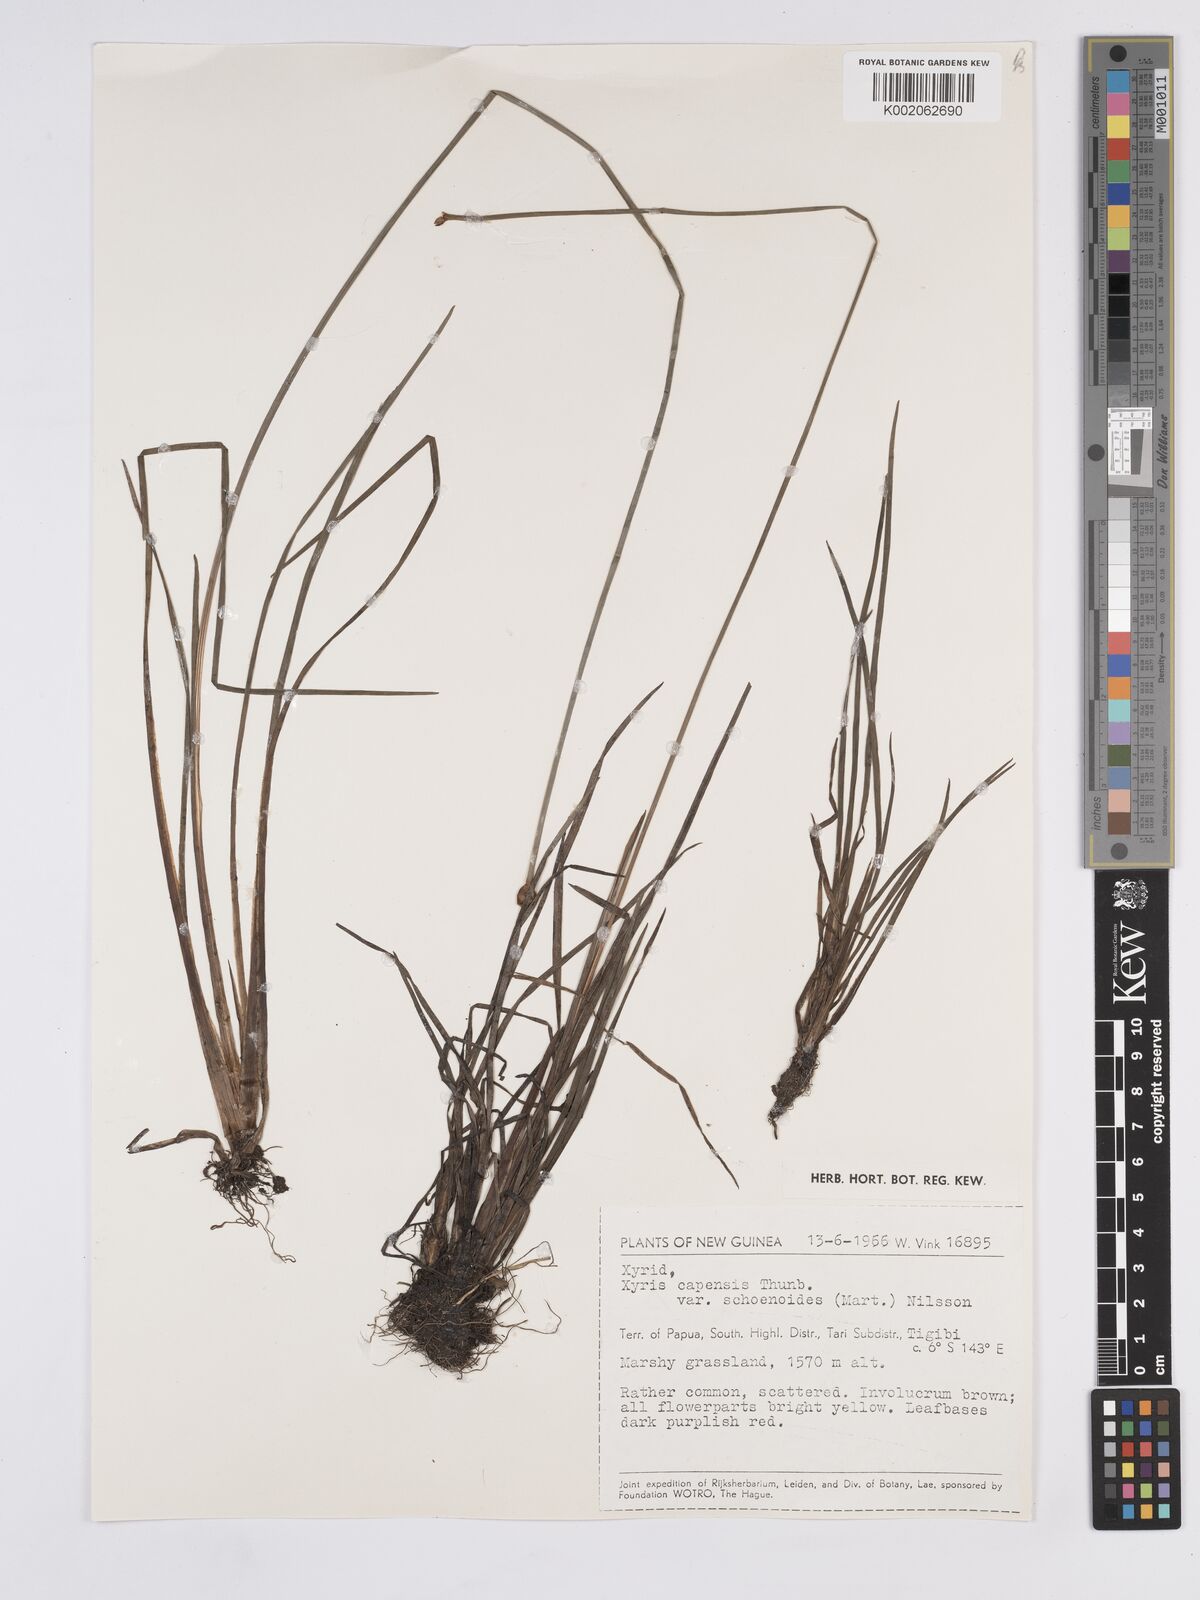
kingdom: Plantae
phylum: Tracheophyta
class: Liliopsida
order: Poales
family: Xyridaceae
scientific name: Xyridaceae
